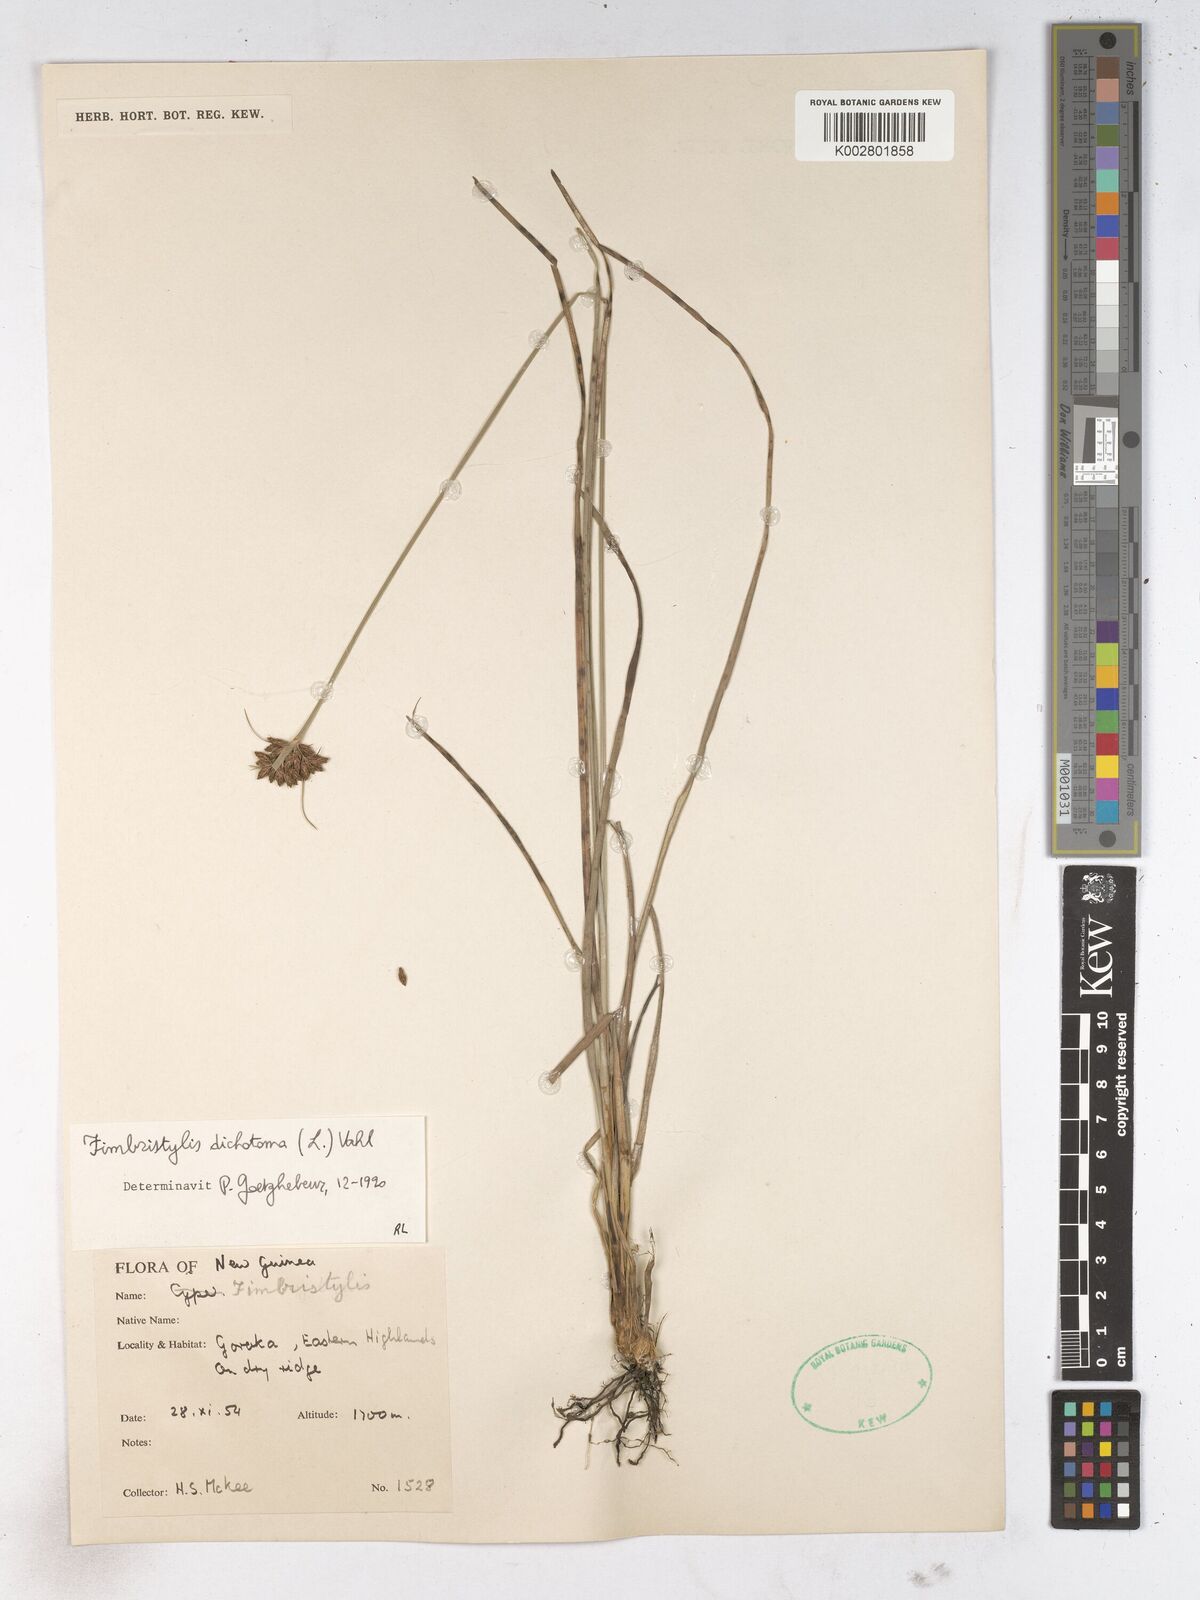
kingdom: Plantae
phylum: Tracheophyta
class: Liliopsida
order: Poales
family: Cyperaceae
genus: Fimbristylis
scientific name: Fimbristylis dichotoma
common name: Forked fimbry
